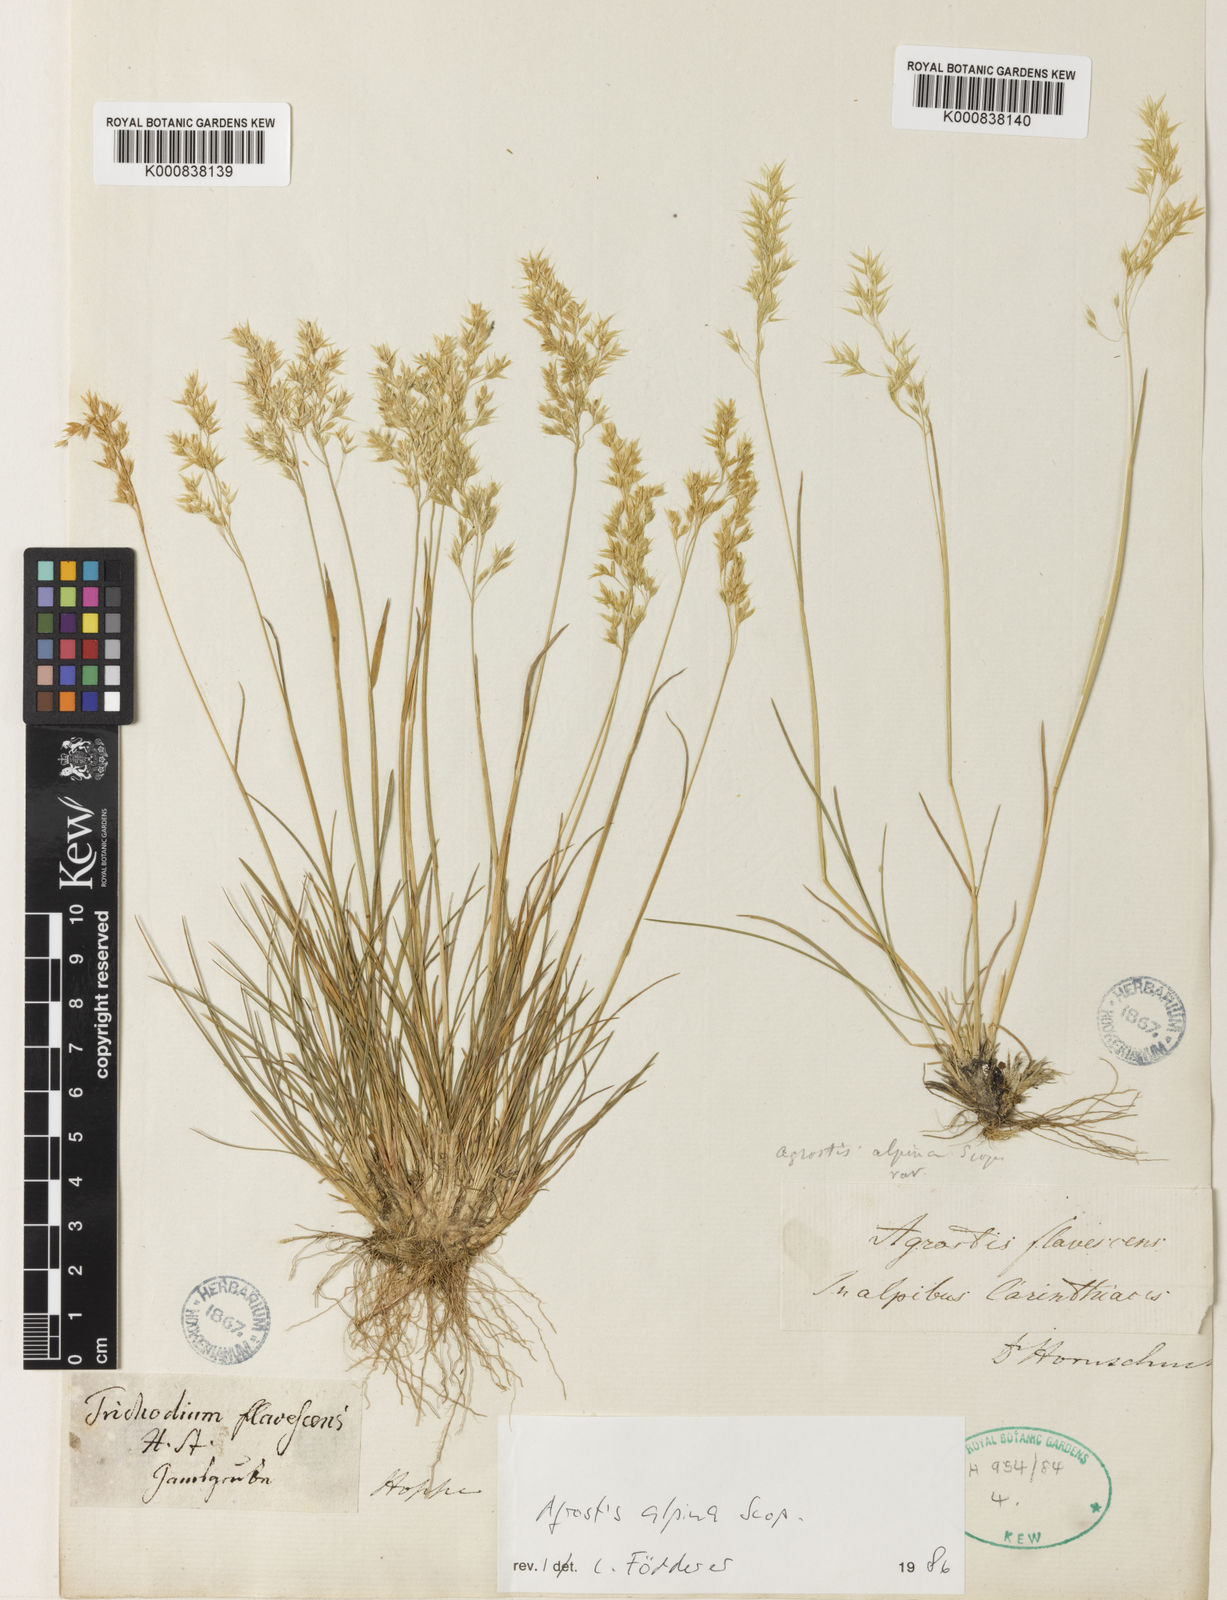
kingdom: Plantae
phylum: Tracheophyta
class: Liliopsida
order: Poales
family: Poaceae
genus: Alpagrostis
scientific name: Alpagrostis alpina
